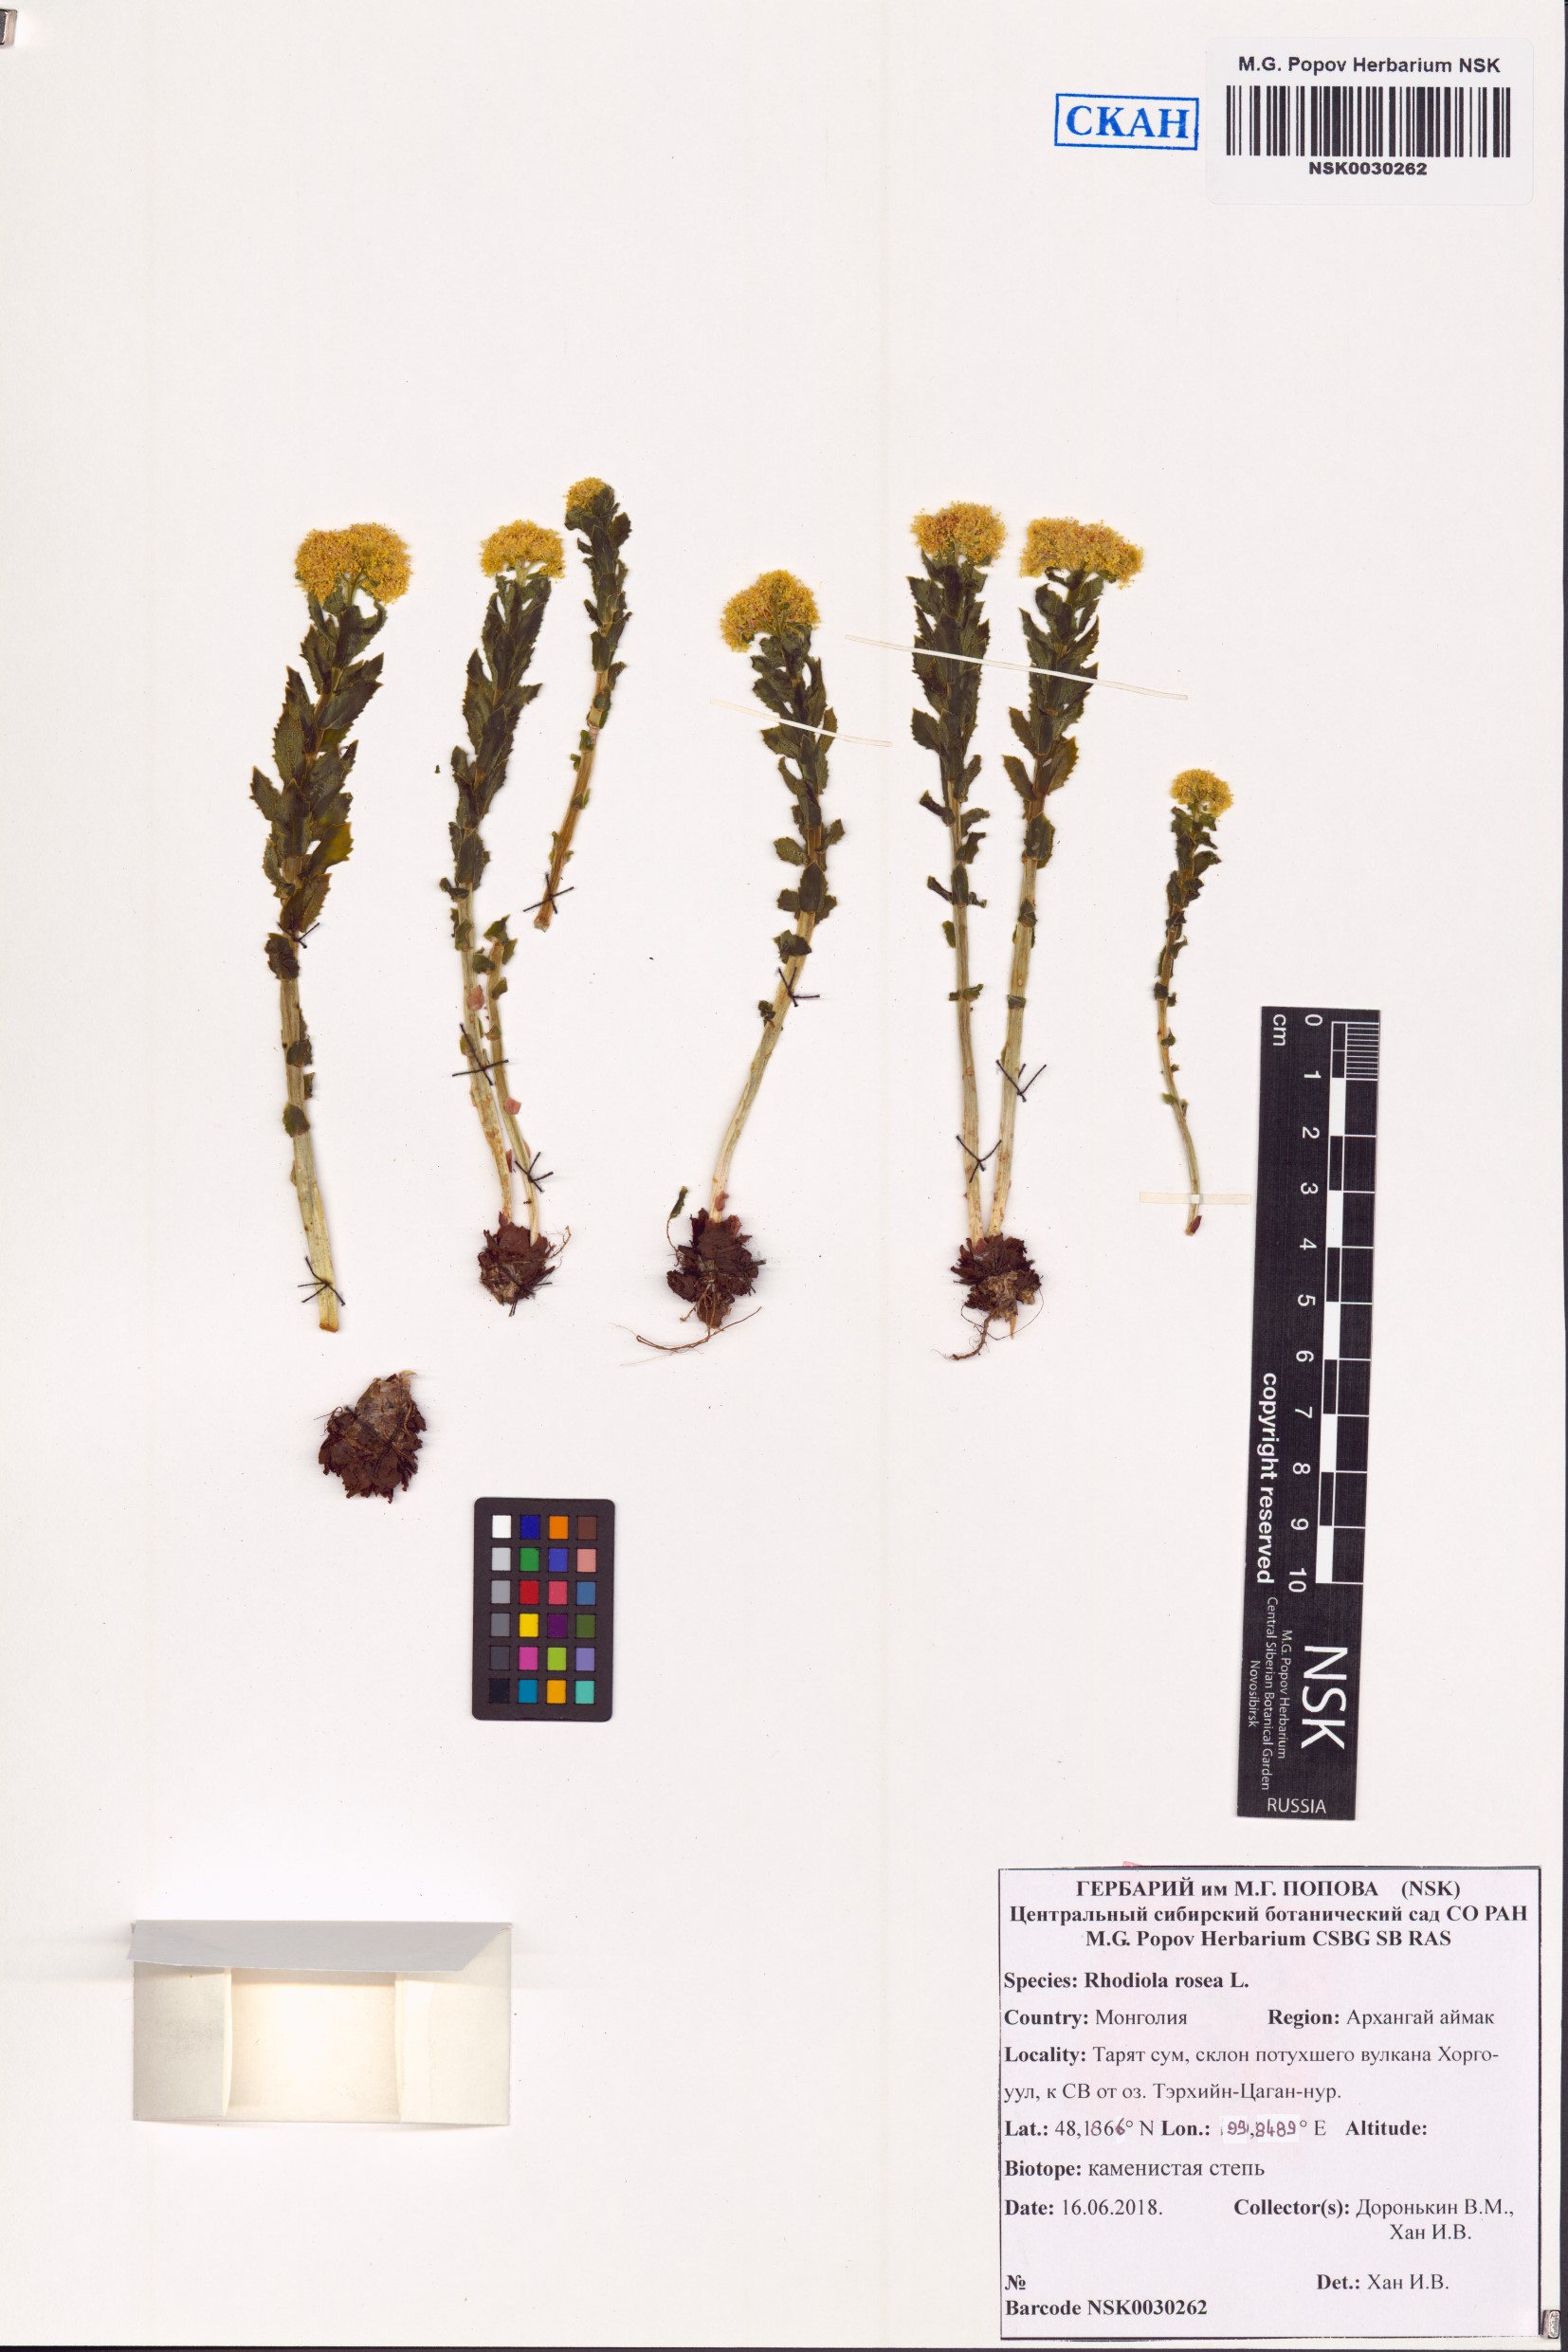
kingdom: Plantae
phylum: Tracheophyta
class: Magnoliopsida
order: Saxifragales
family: Crassulaceae
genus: Rhodiola
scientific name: Rhodiola rosea
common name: Roseroot
